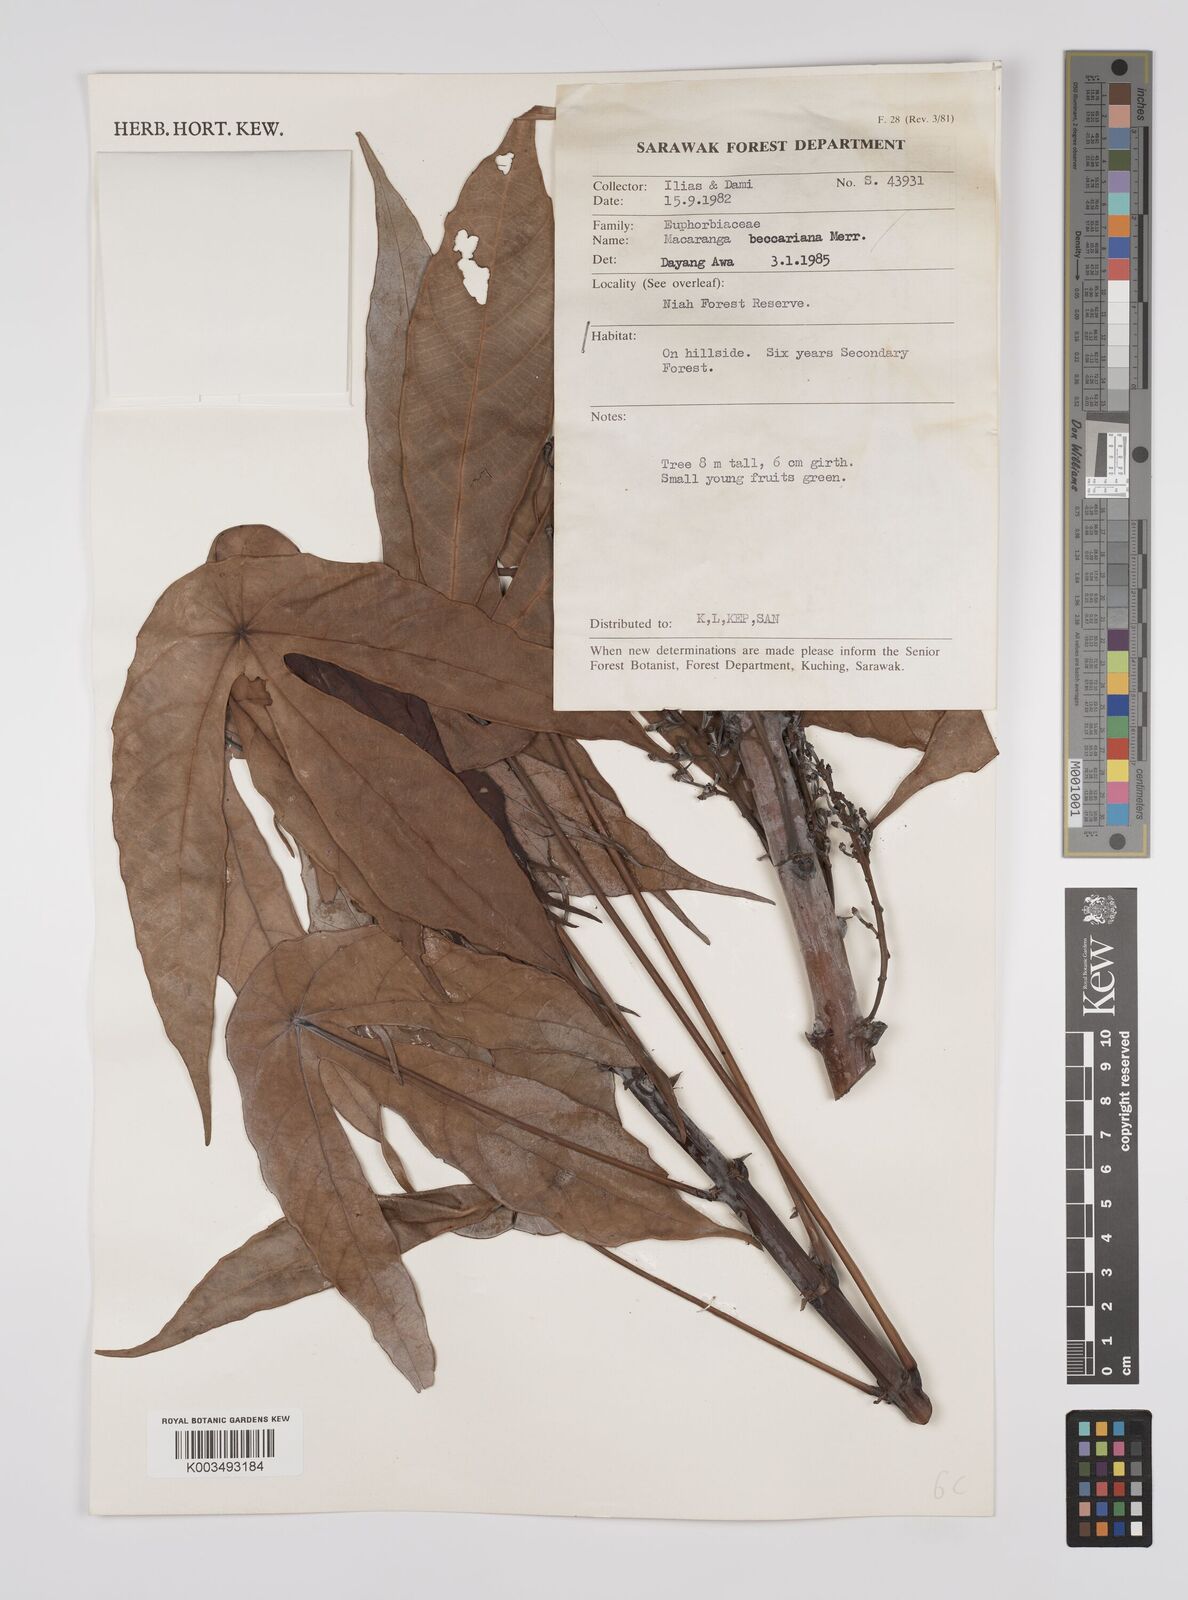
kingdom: Plantae
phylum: Tracheophyta
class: Magnoliopsida
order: Malpighiales
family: Euphorbiaceae
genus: Macaranga
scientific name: Macaranga beccariana
